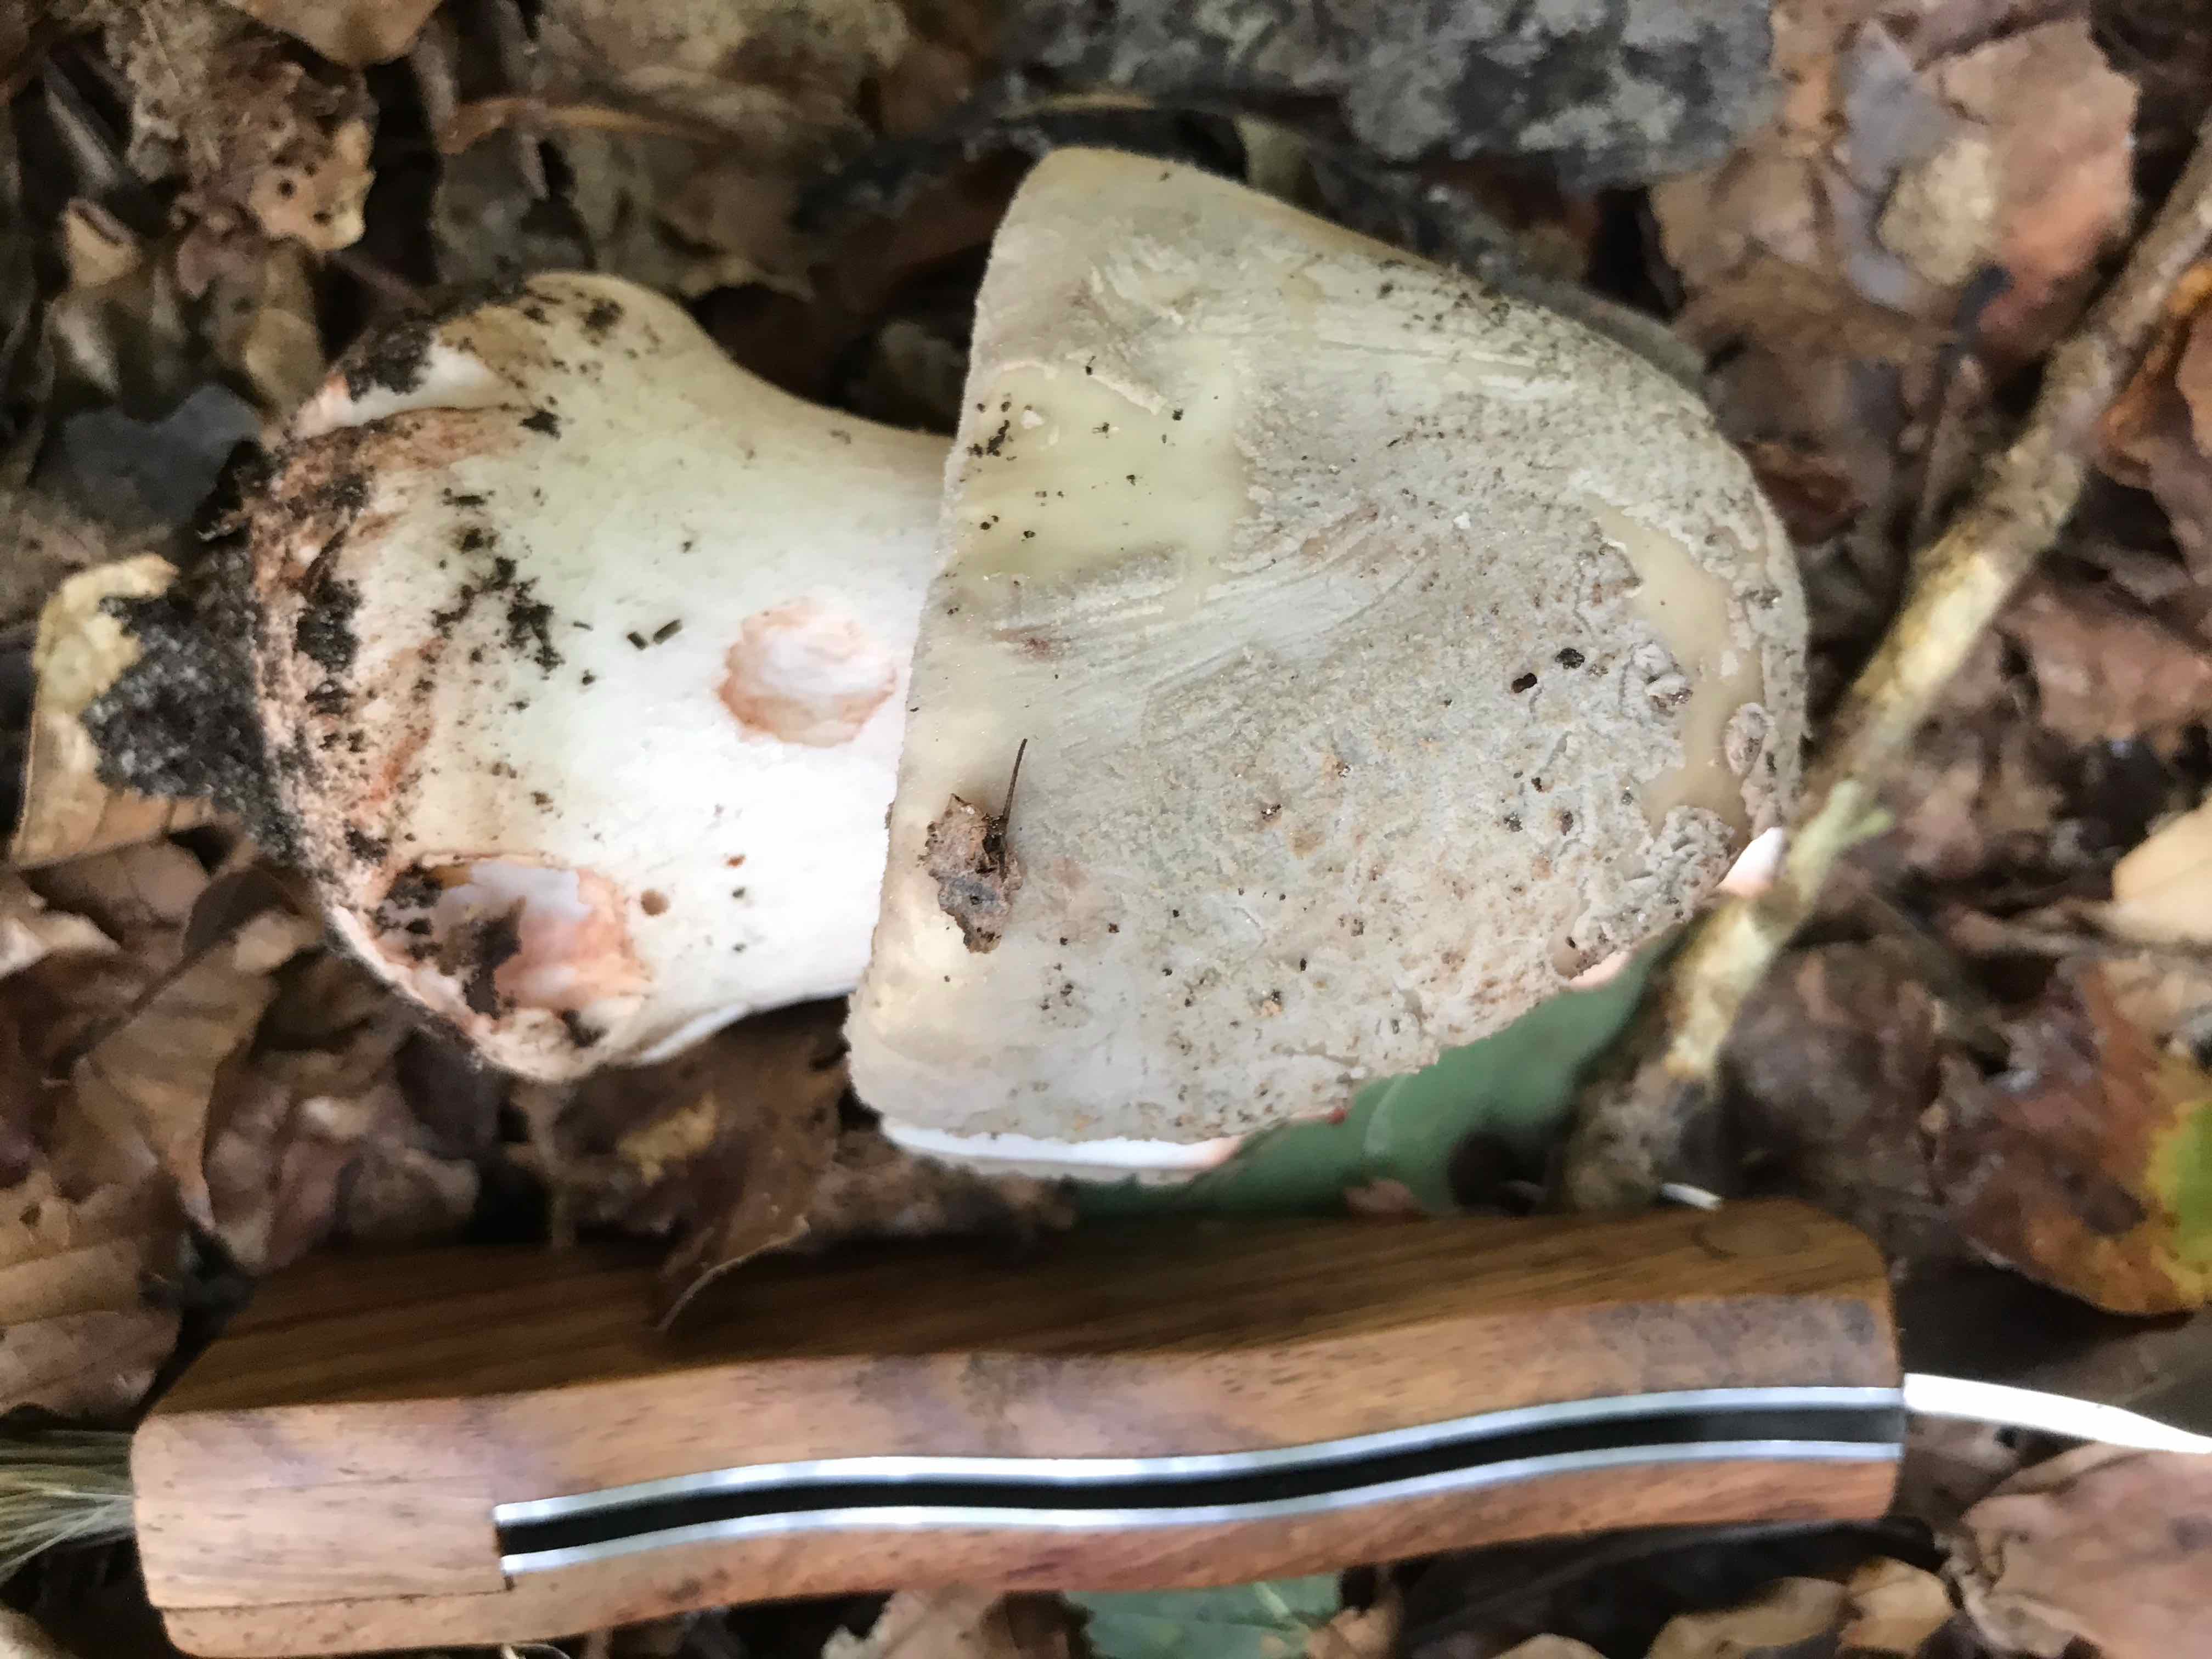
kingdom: Fungi
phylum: Basidiomycota
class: Agaricomycetes
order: Agaricales
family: Amanitaceae
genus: Amanita
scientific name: Amanita rubescens
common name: rødmende fluesvamp
